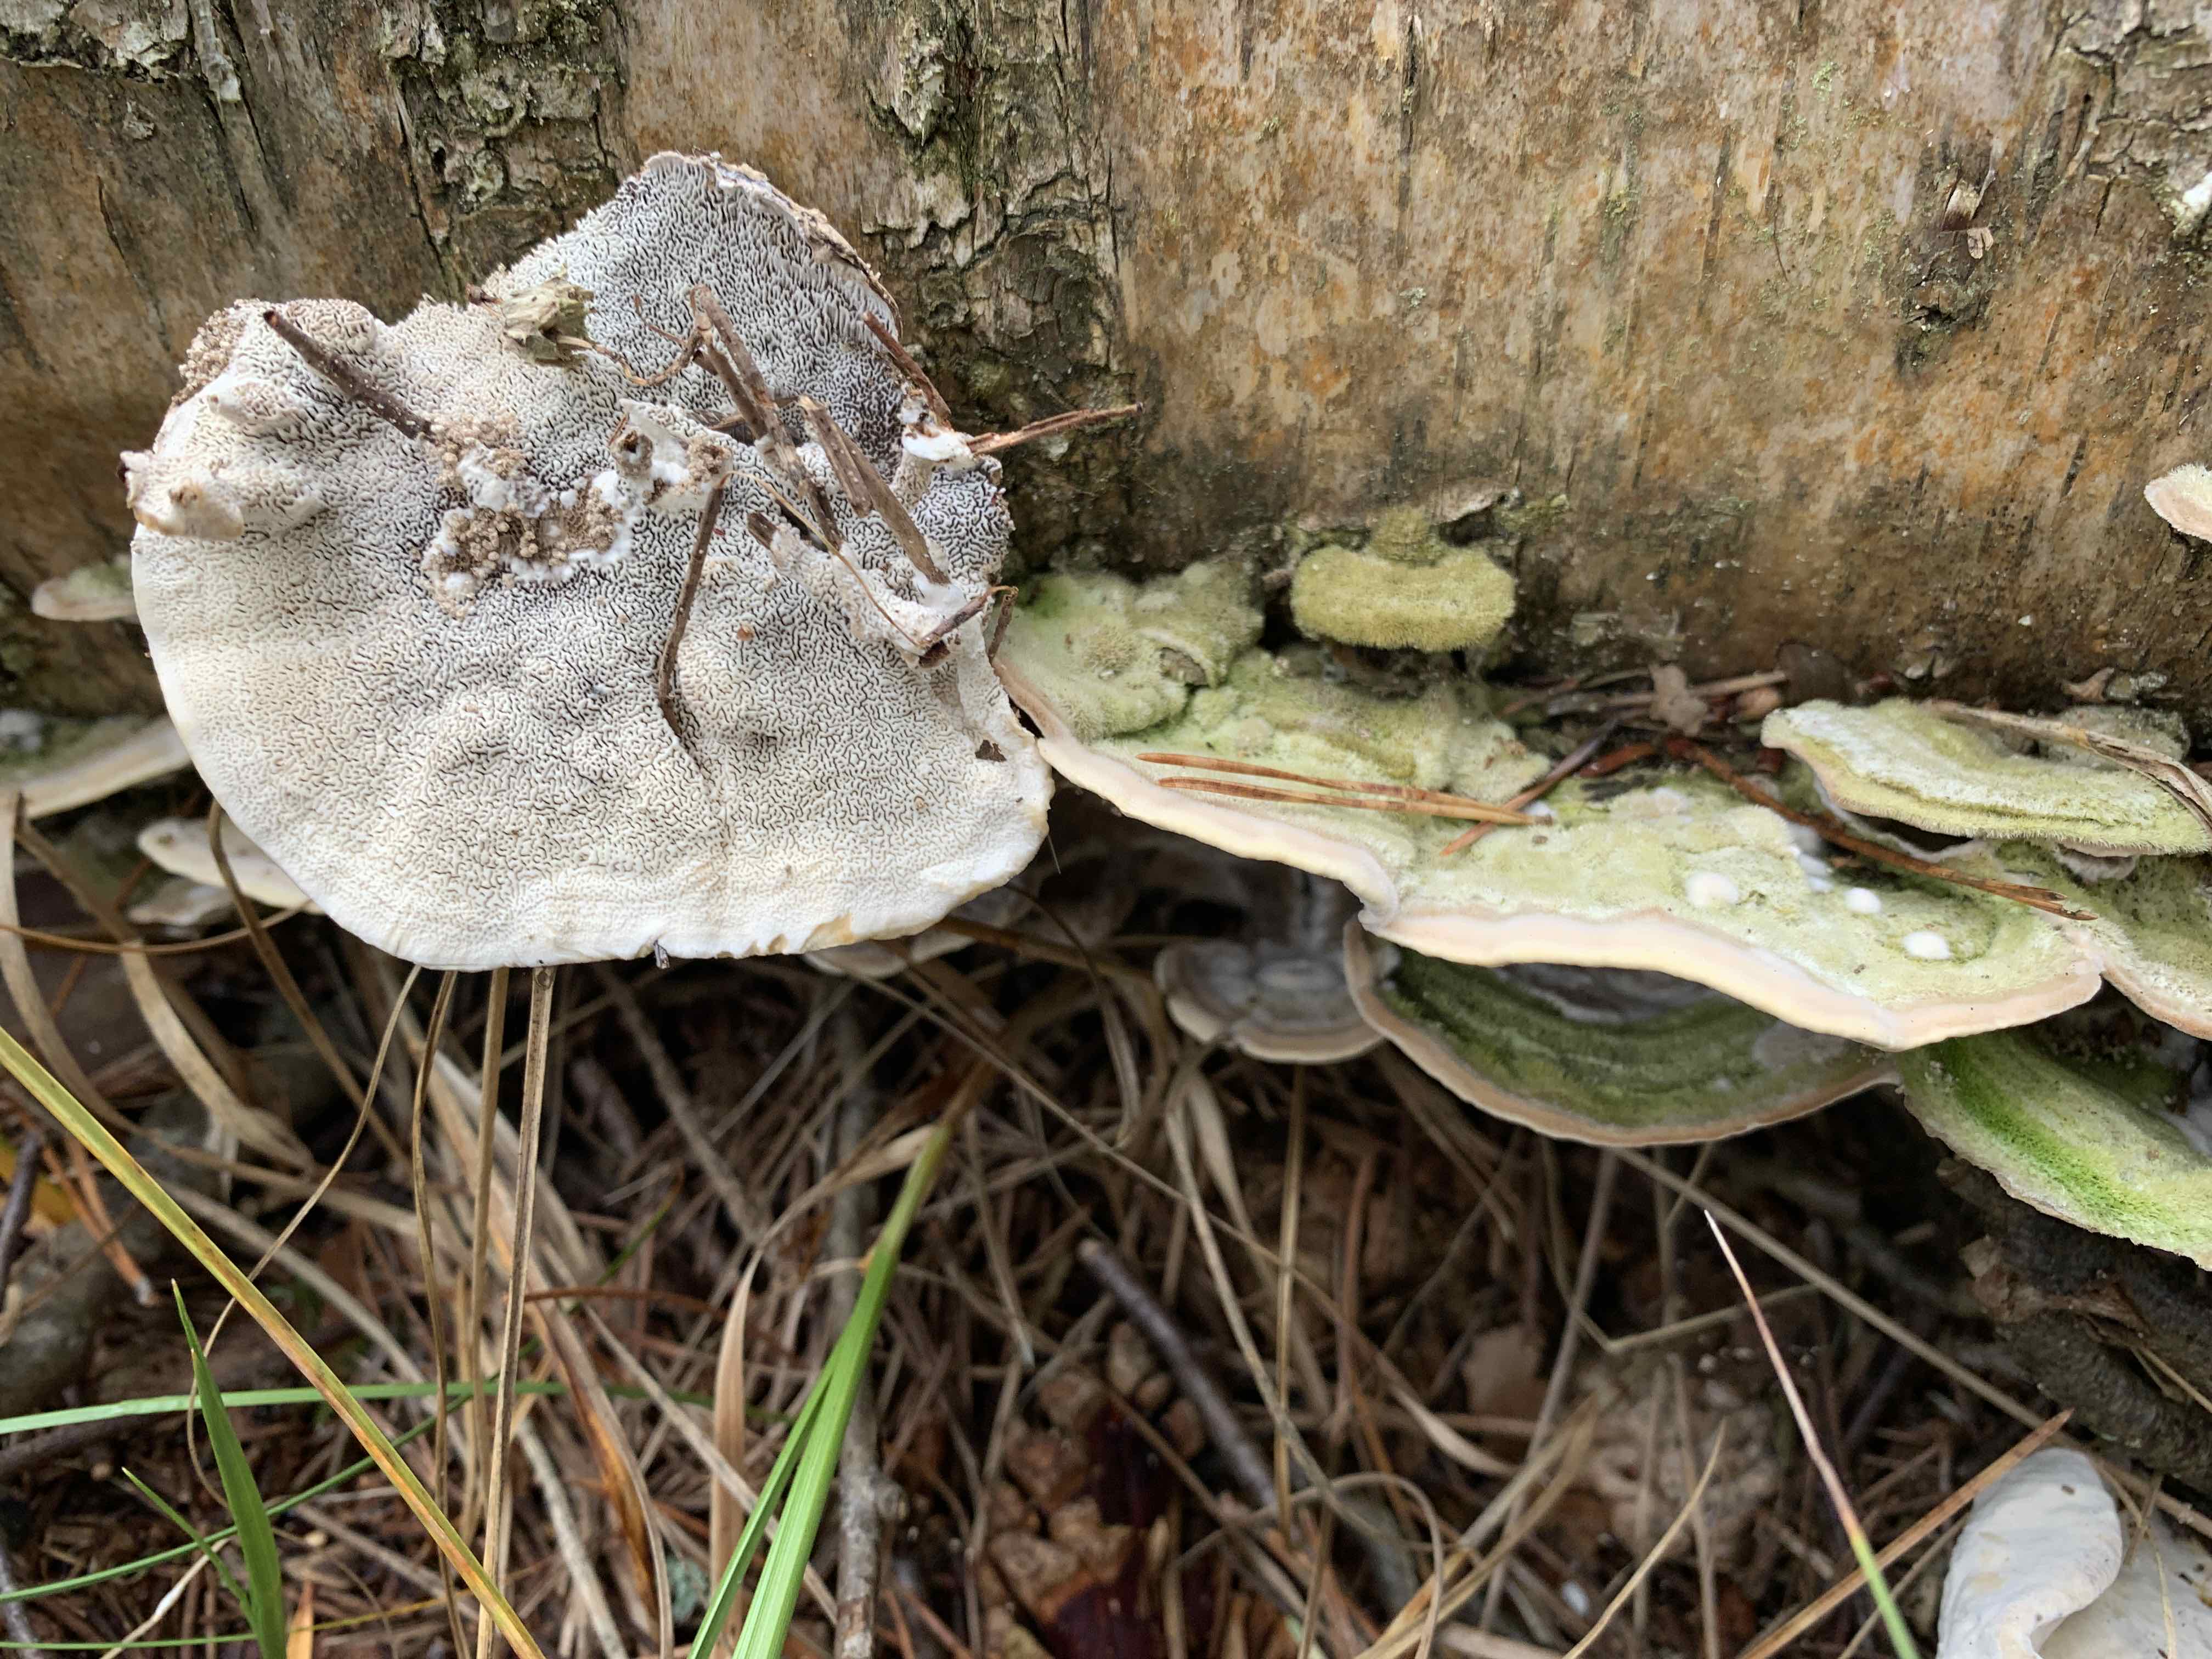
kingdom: Fungi
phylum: Basidiomycota
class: Agaricomycetes
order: Polyporales
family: Cerrenaceae
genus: Cerrena
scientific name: Cerrena unicolor
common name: ensfarvet læderporesvamp
